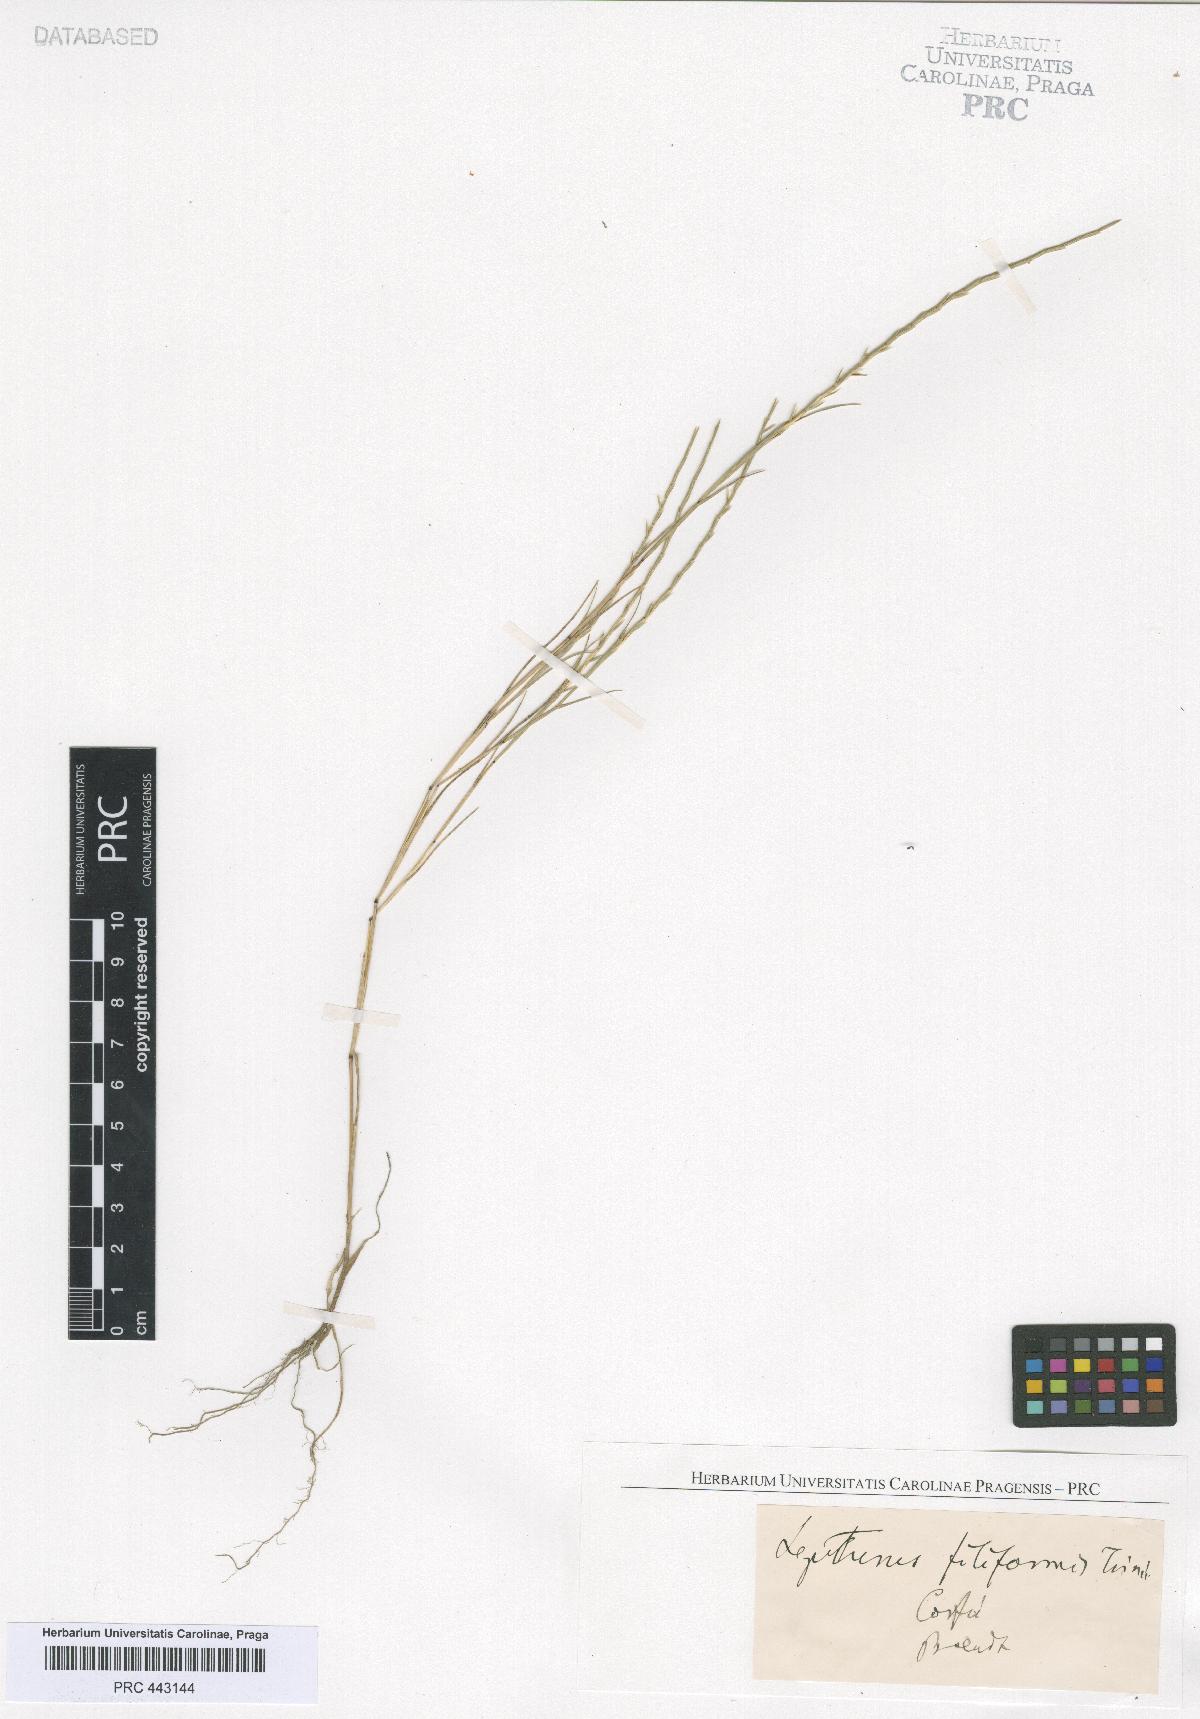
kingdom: Plantae
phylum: Tracheophyta
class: Liliopsida
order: Poales
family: Poaceae
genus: Parapholis
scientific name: Parapholis filiformis
